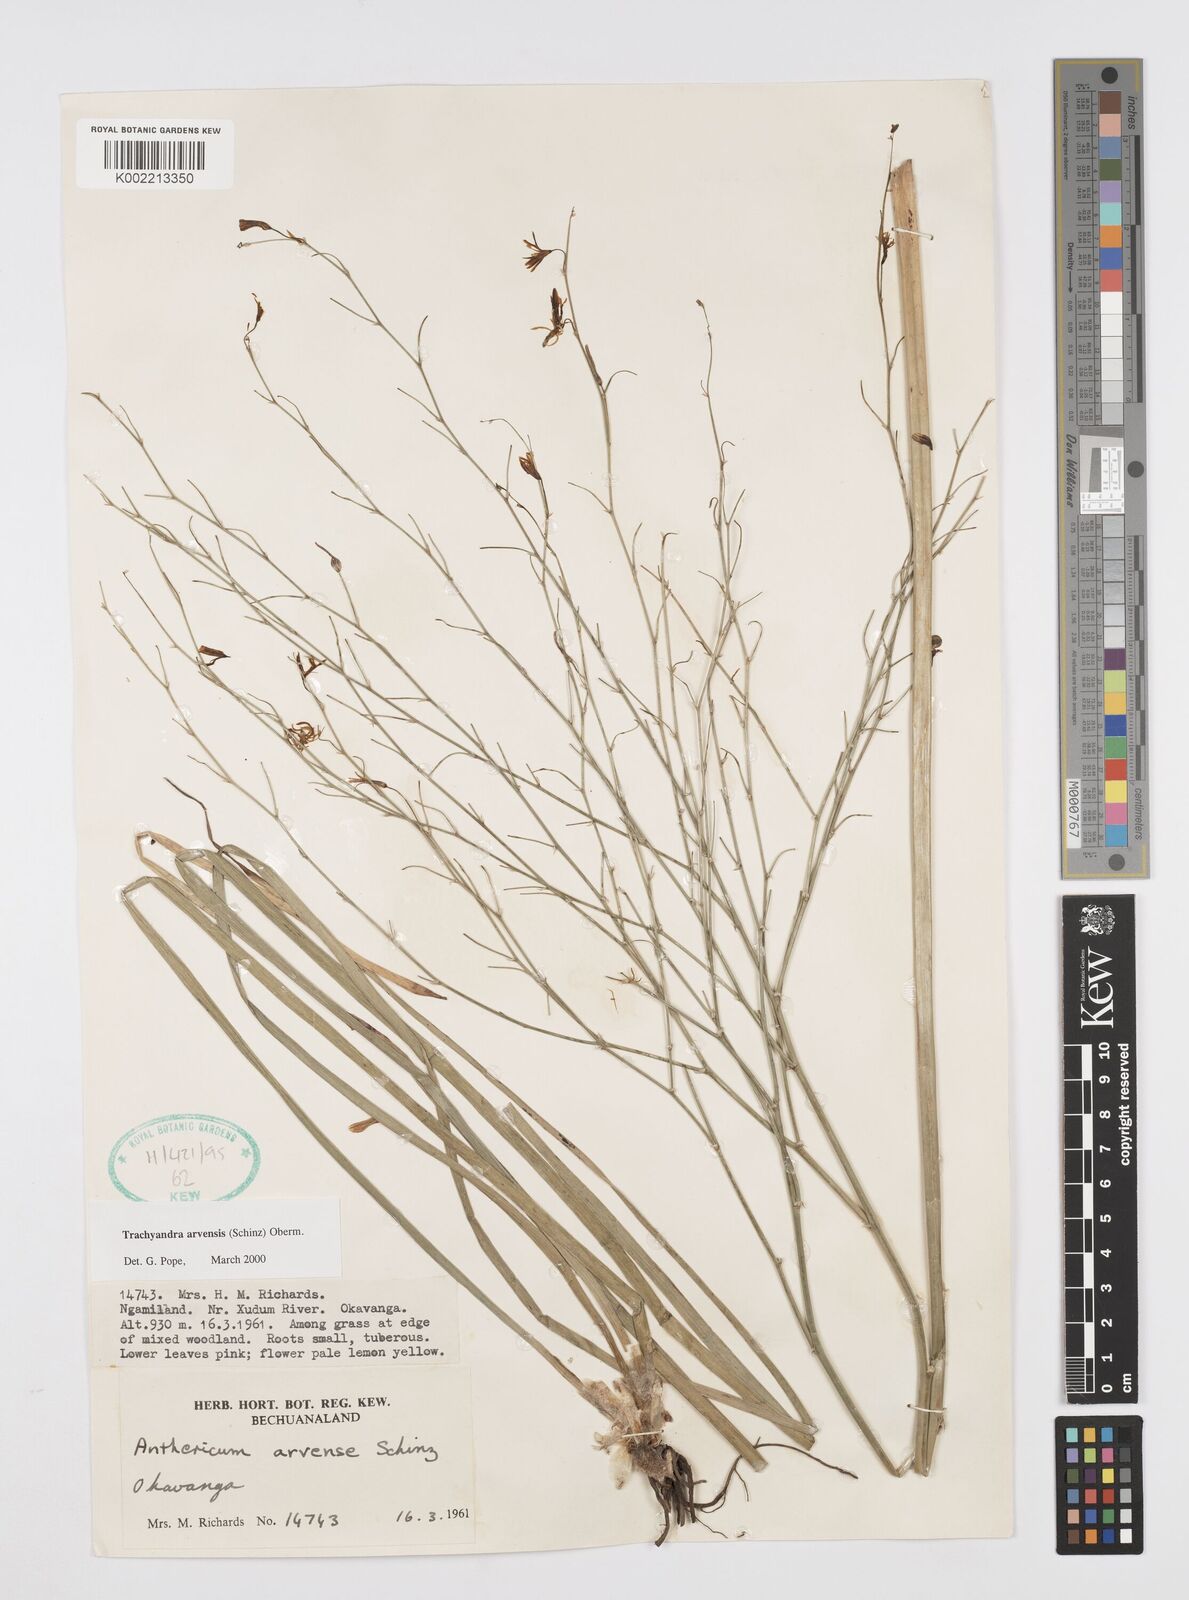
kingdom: Plantae
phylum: Tracheophyta
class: Liliopsida
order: Asparagales
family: Asphodelaceae
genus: Trachyandra
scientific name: Trachyandra arvensis
